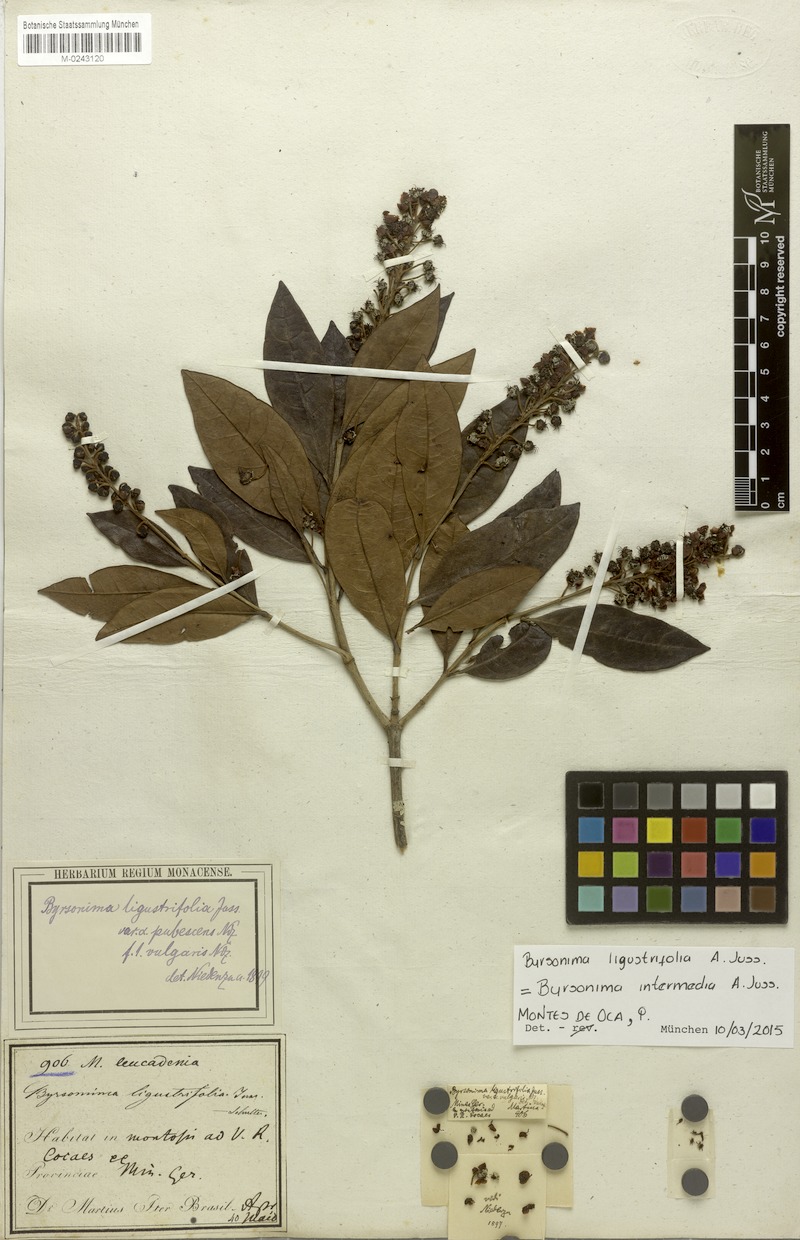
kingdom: Plantae
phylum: Tracheophyta
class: Magnoliopsida
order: Malpighiales
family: Malpighiaceae
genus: Byrsonima
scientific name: Byrsonima ligustrifolia
